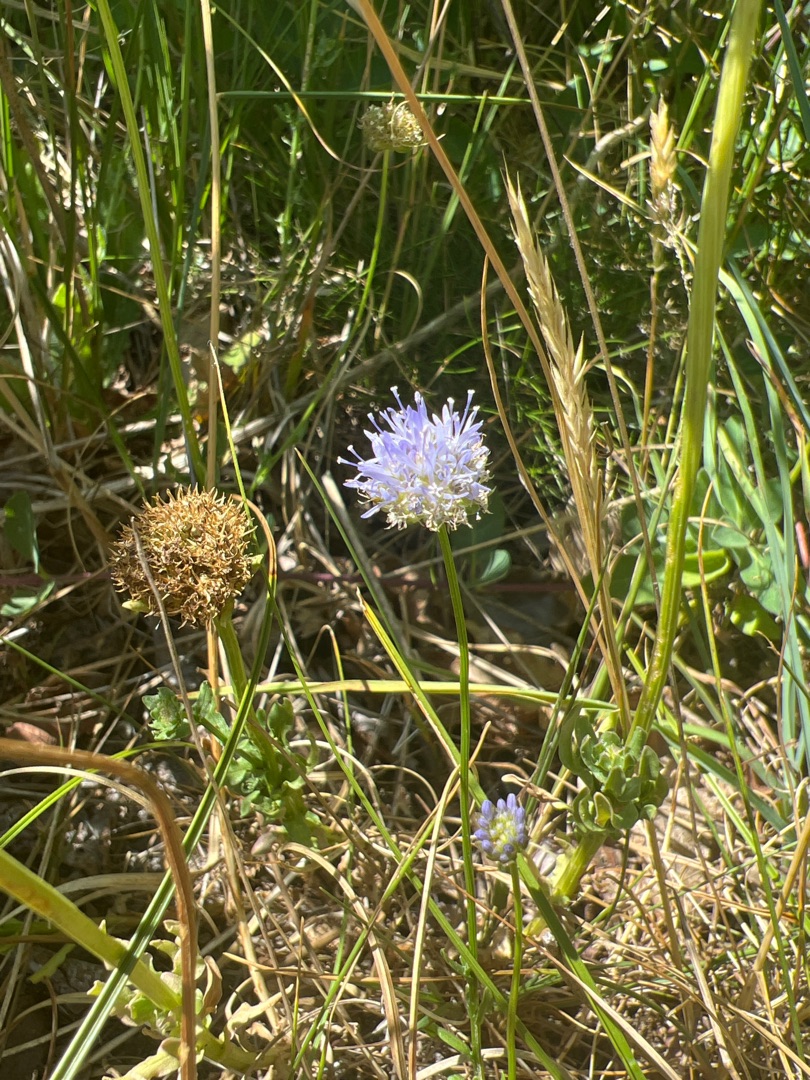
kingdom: Plantae
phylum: Tracheophyta
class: Magnoliopsida
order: Asterales
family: Campanulaceae
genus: Jasione
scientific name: Jasione montana
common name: Blåmunke
